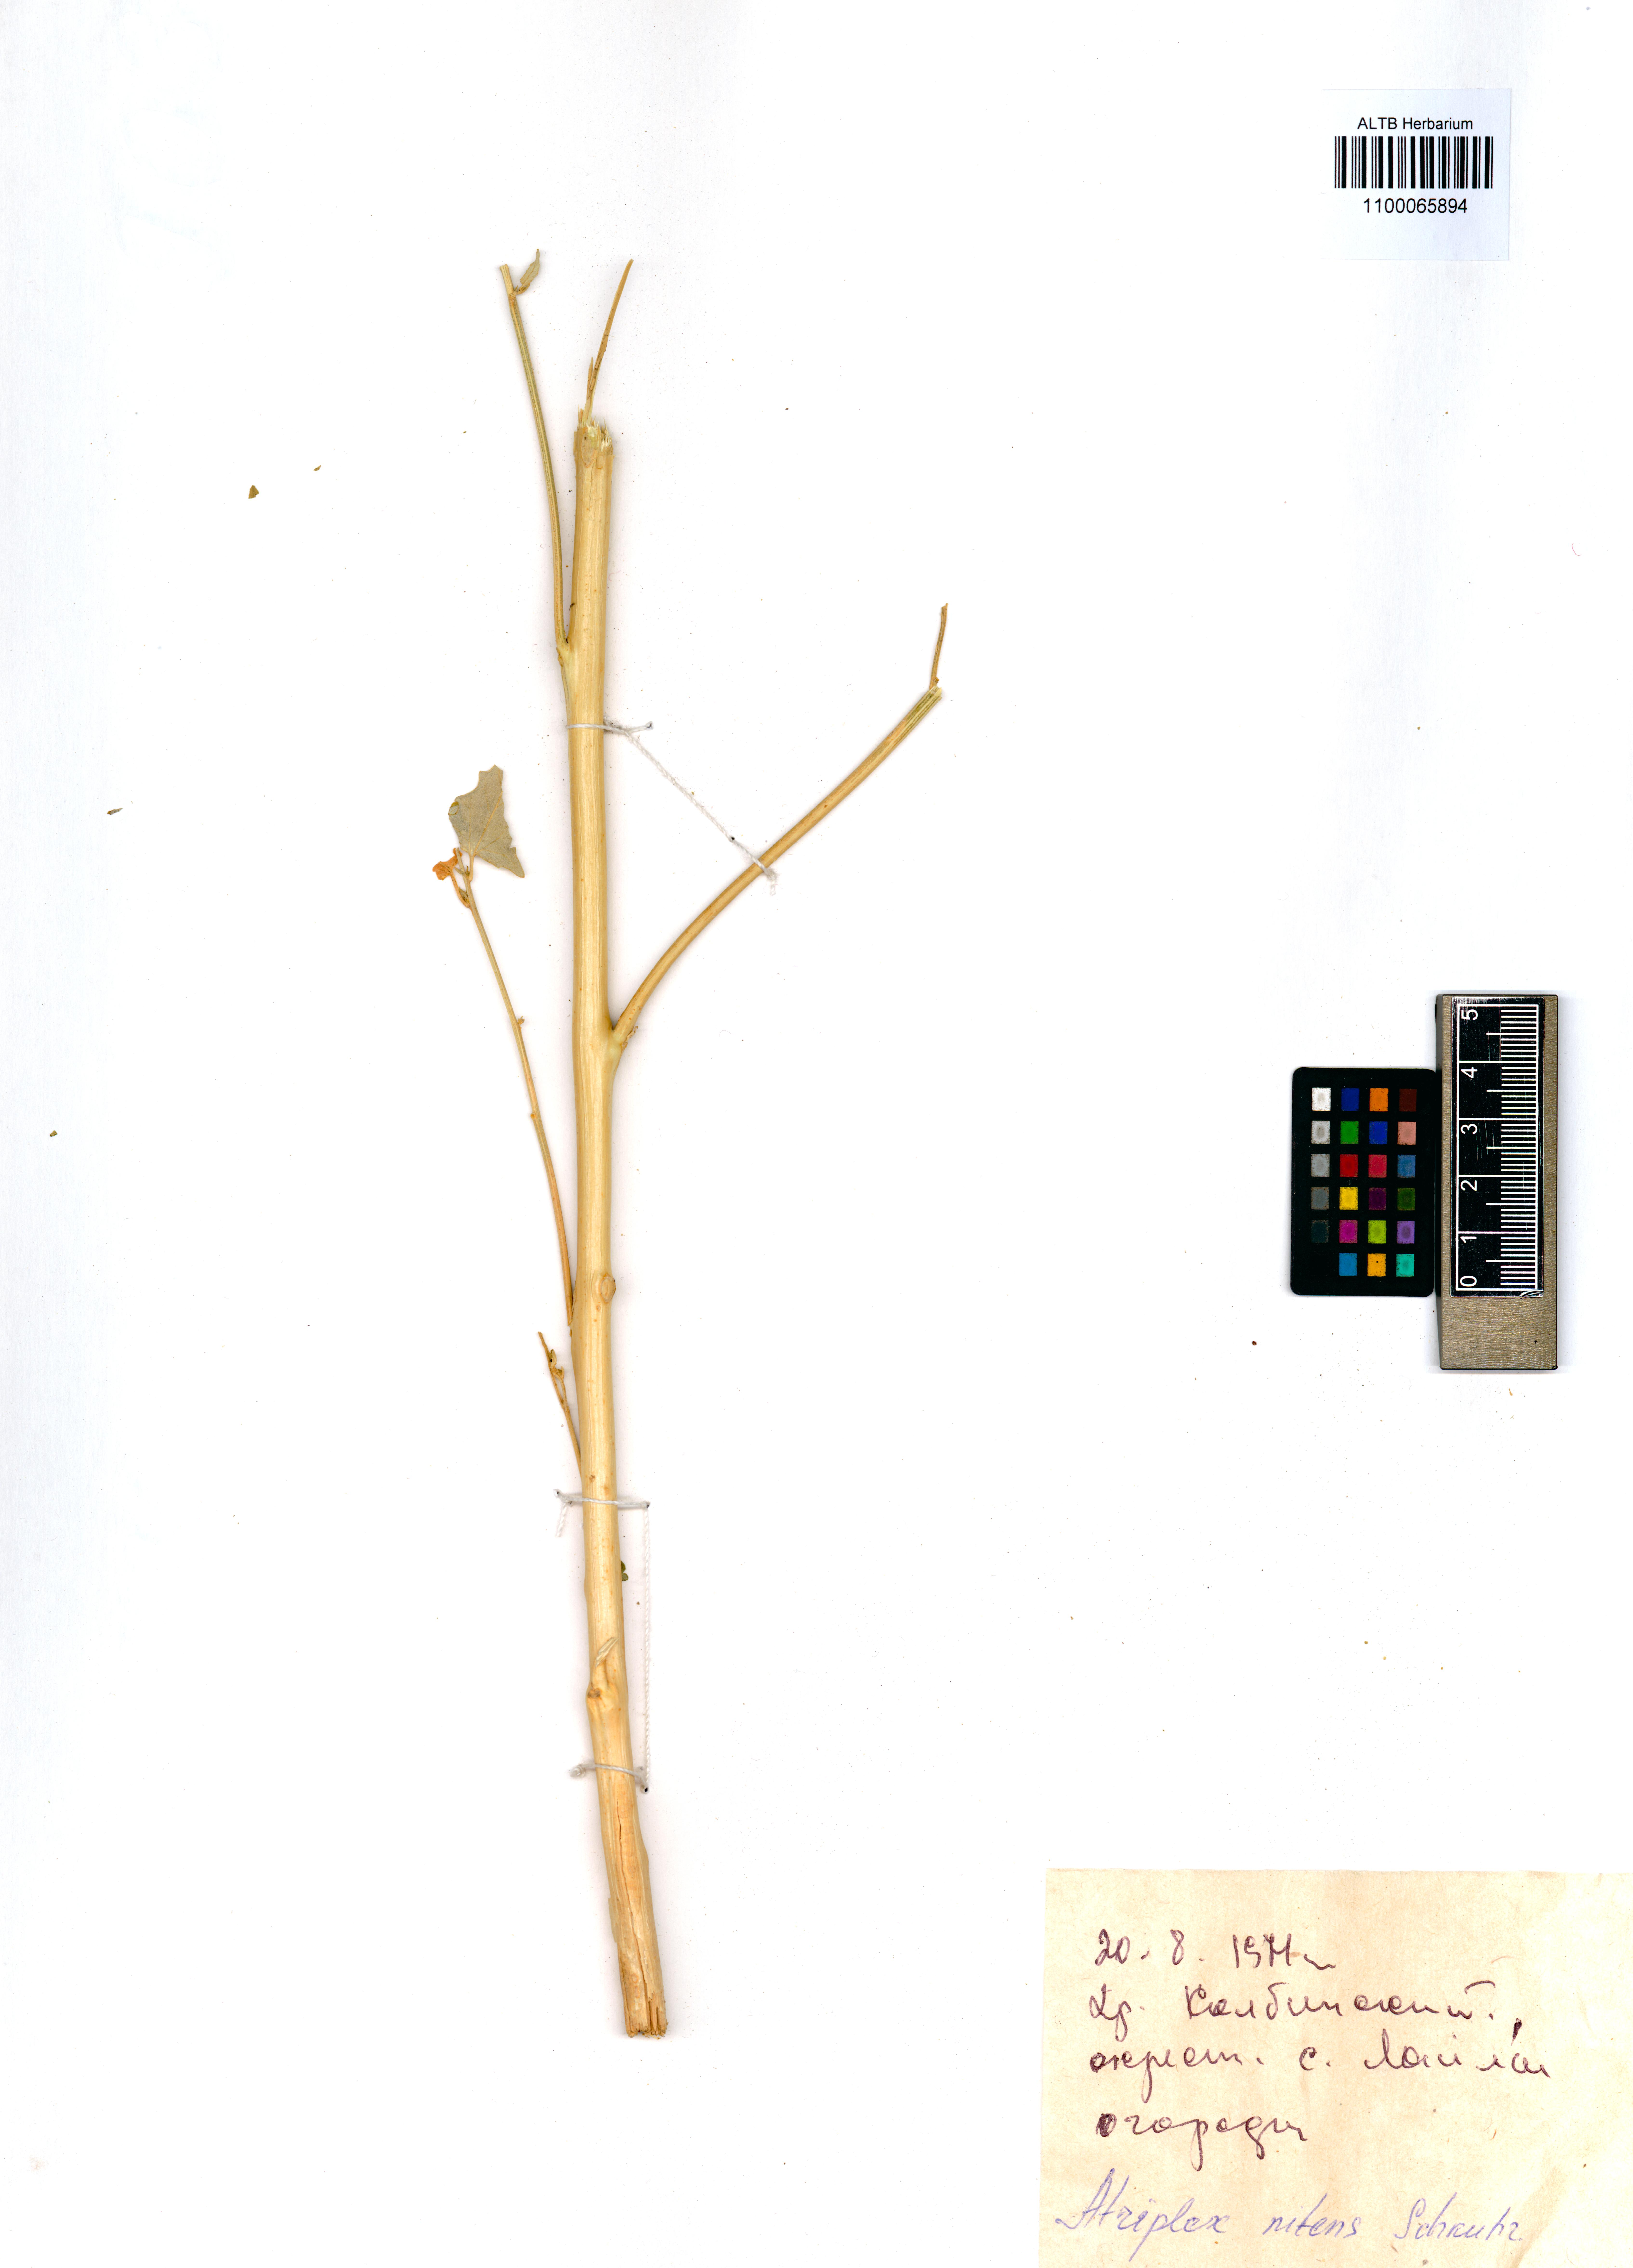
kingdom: Plantae
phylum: Tracheophyta
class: Magnoliopsida
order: Caryophyllales
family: Amaranthaceae
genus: Atriplex
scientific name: Atriplex sagittata
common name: Purple orache
